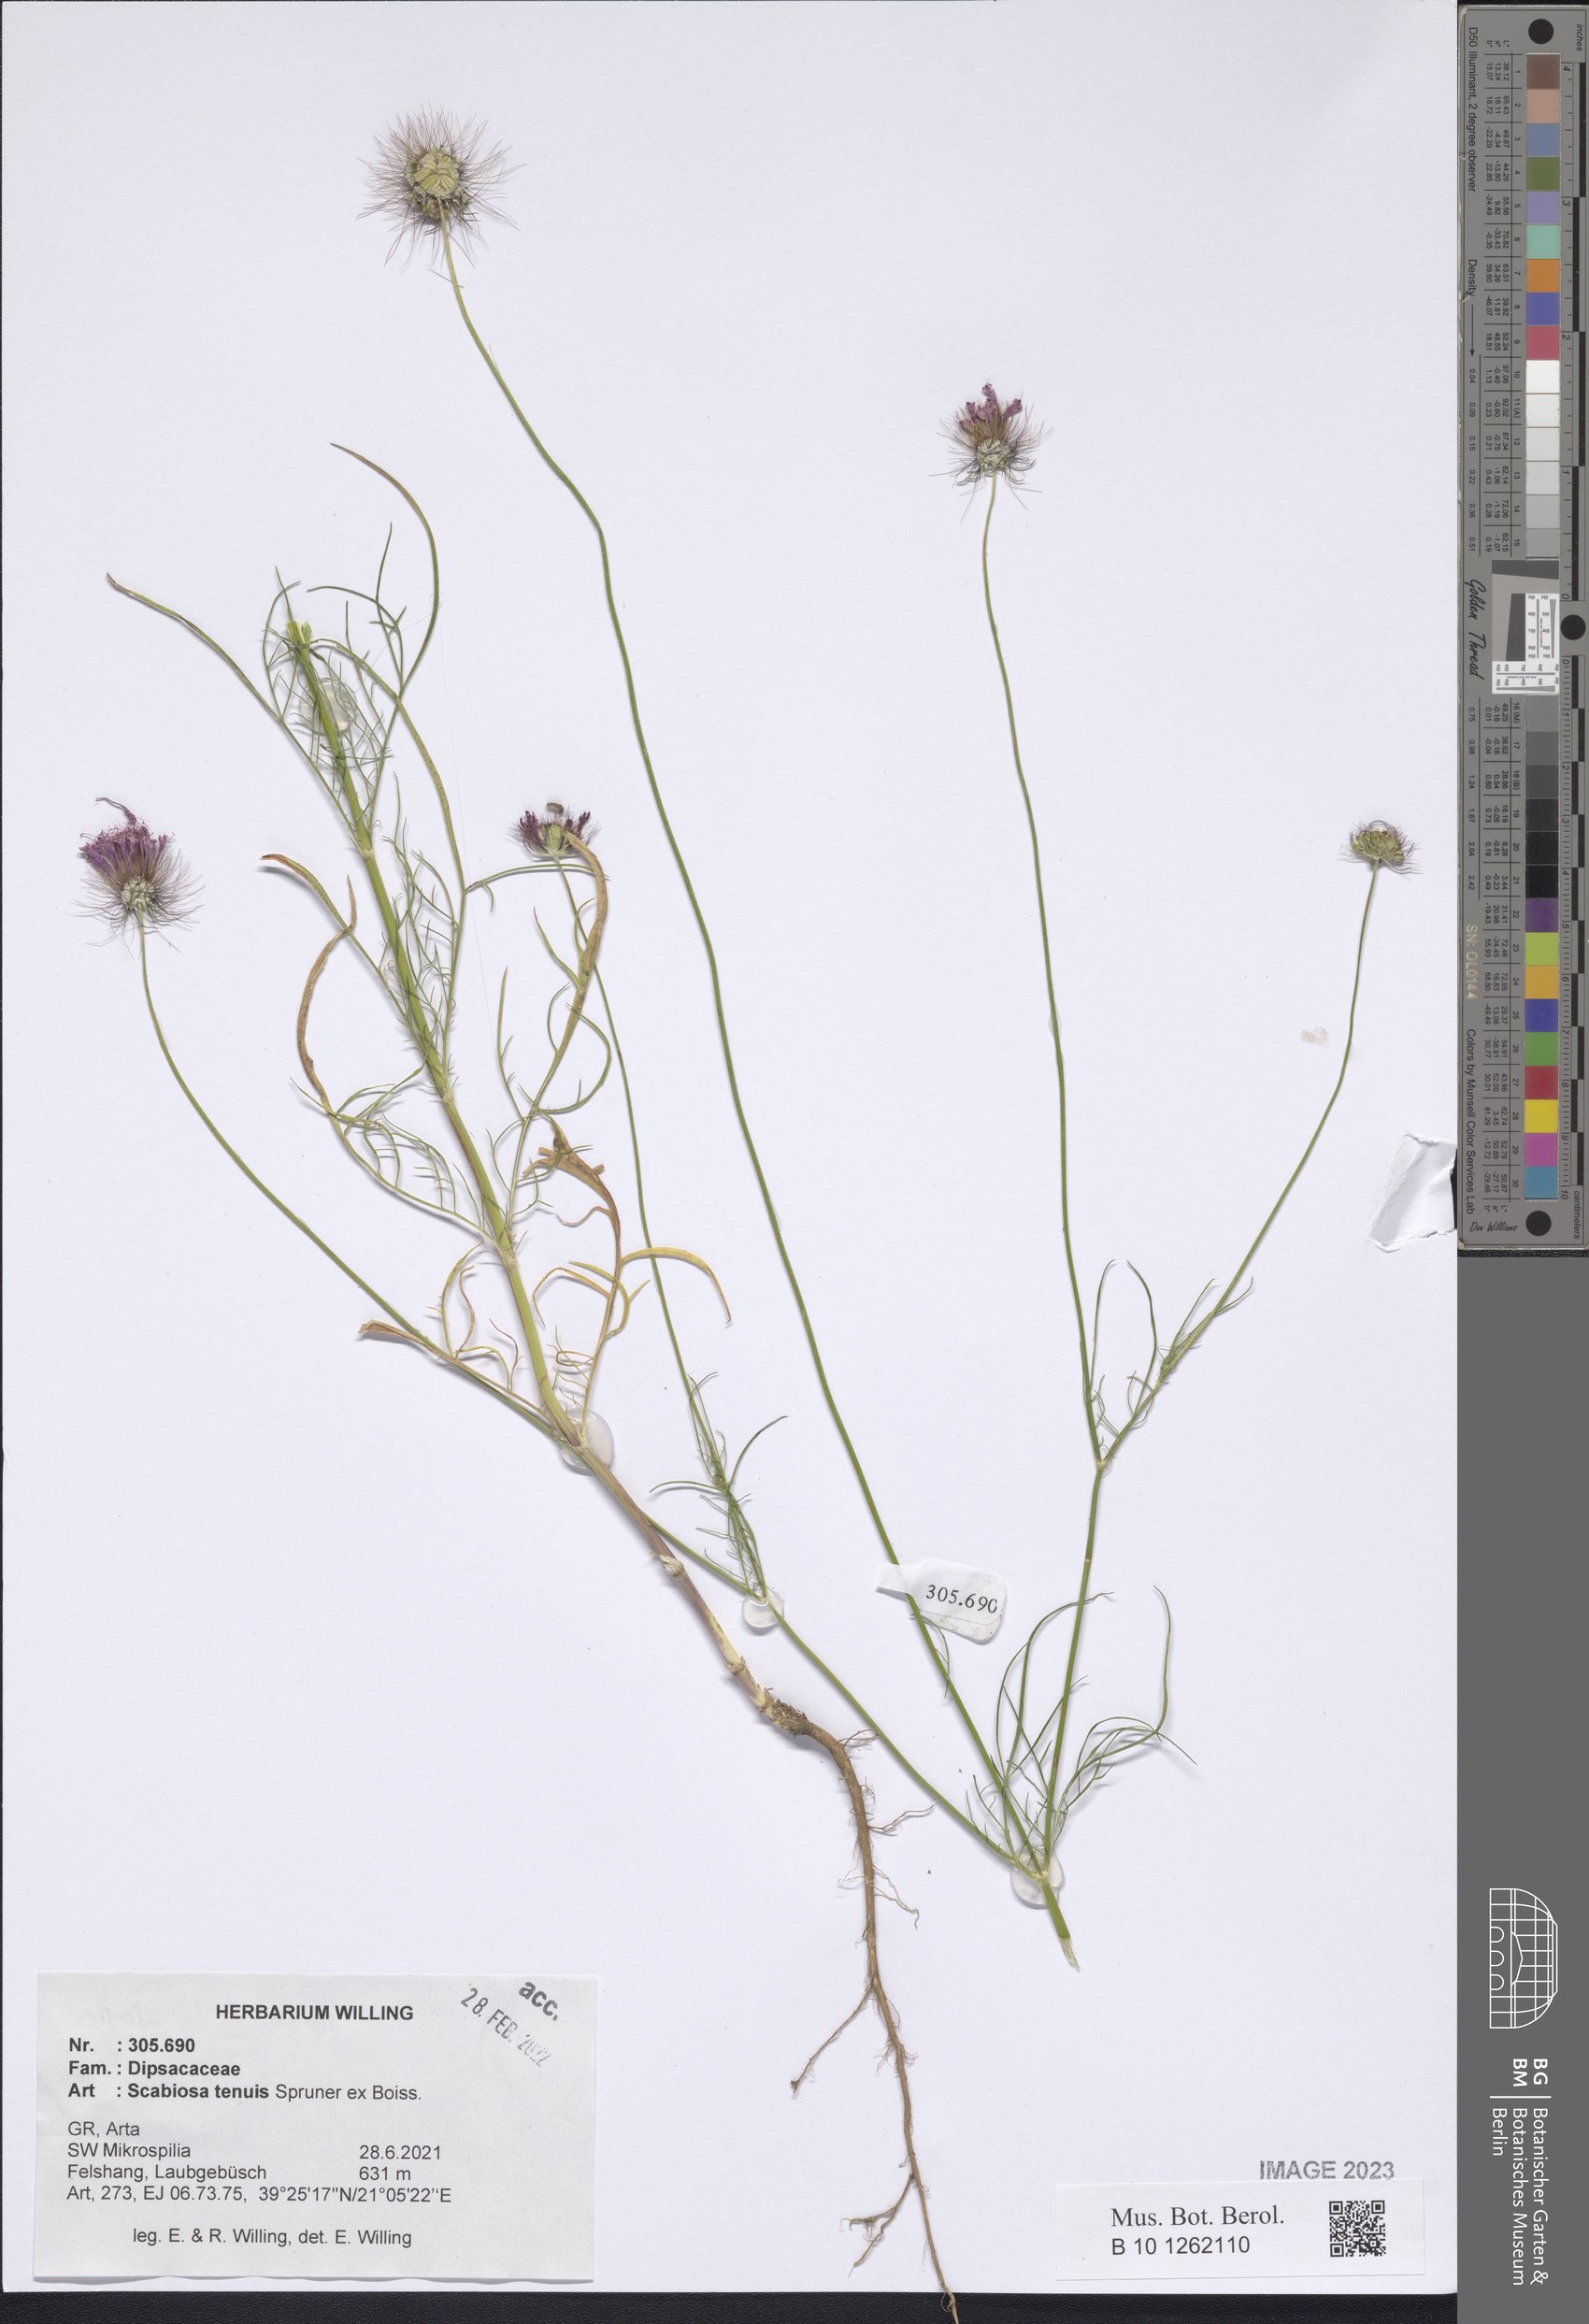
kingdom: Plantae
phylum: Tracheophyta
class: Magnoliopsida
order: Dipsacales
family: Caprifoliaceae
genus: Scabiosa
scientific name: Scabiosa tenuis
